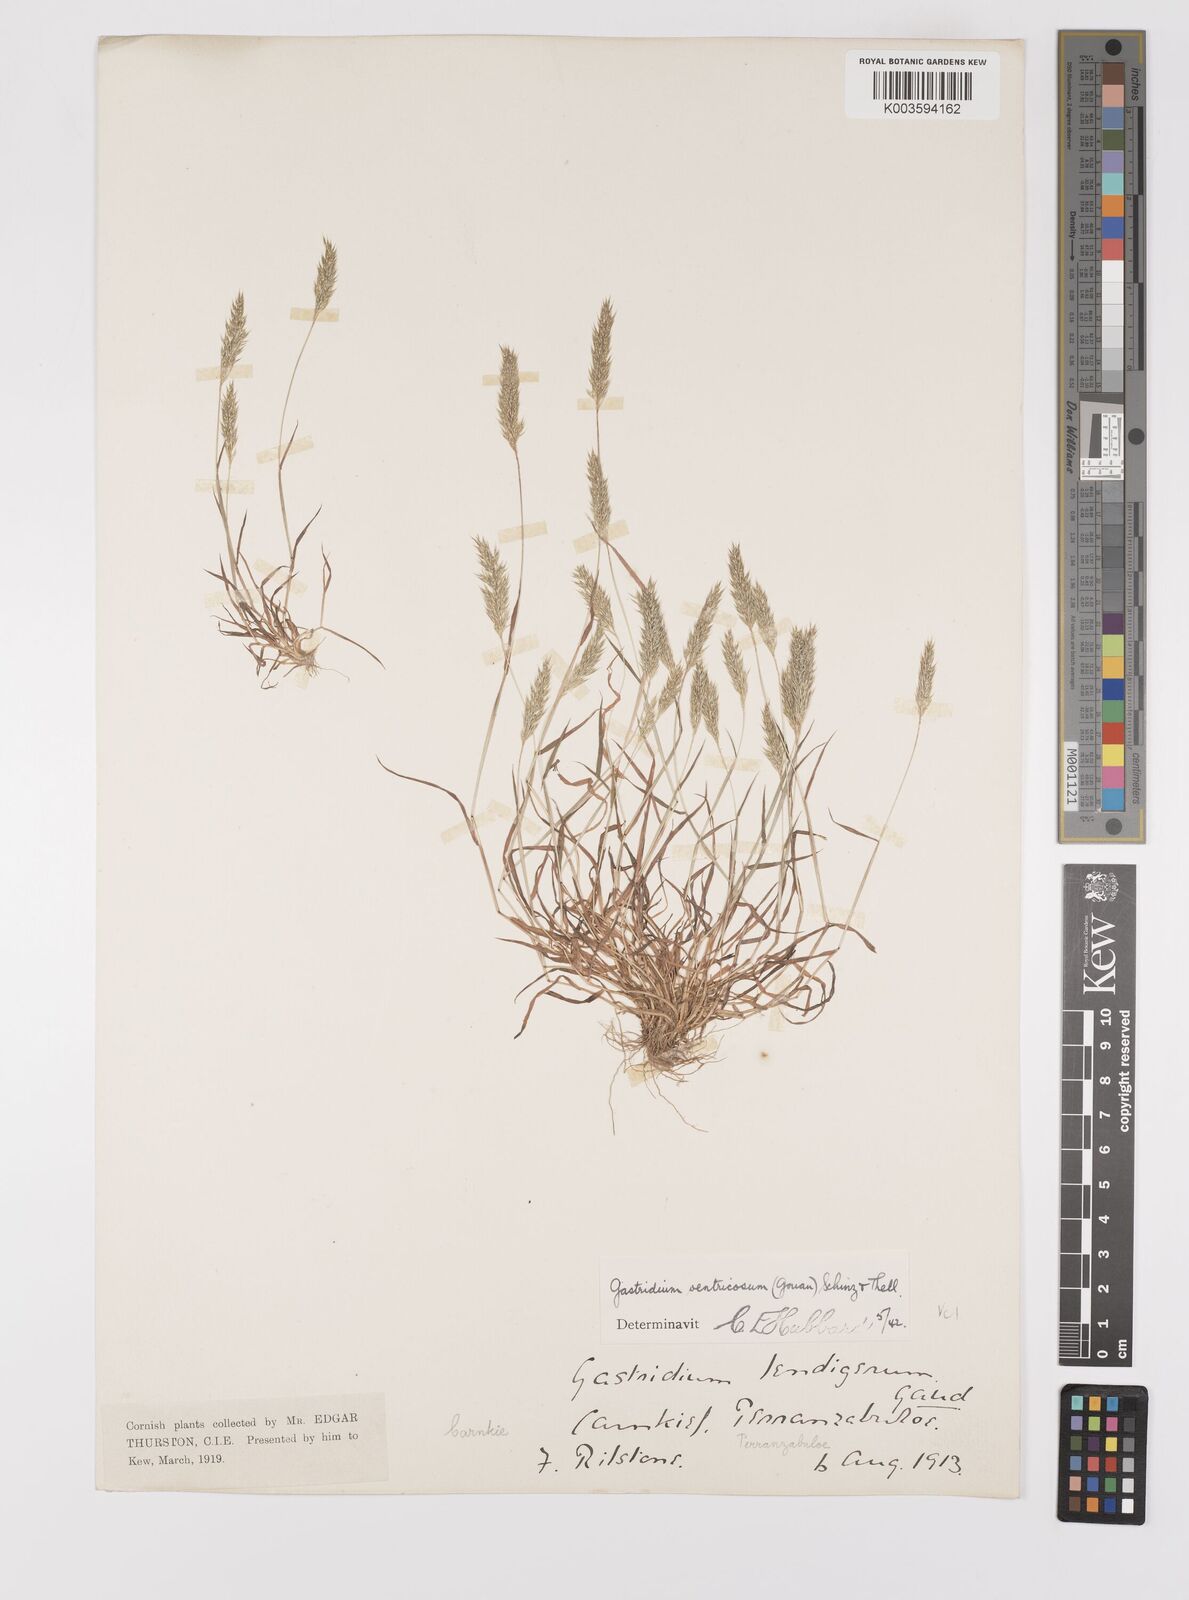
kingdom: Plantae
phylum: Tracheophyta
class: Liliopsida
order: Poales
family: Poaceae
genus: Gastridium
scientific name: Gastridium ventricosum
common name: Nit-grass
